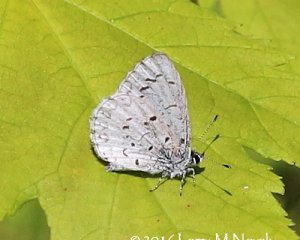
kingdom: Animalia
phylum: Arthropoda
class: Insecta
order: Lepidoptera
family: Lycaenidae
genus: Celastrina
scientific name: Celastrina
